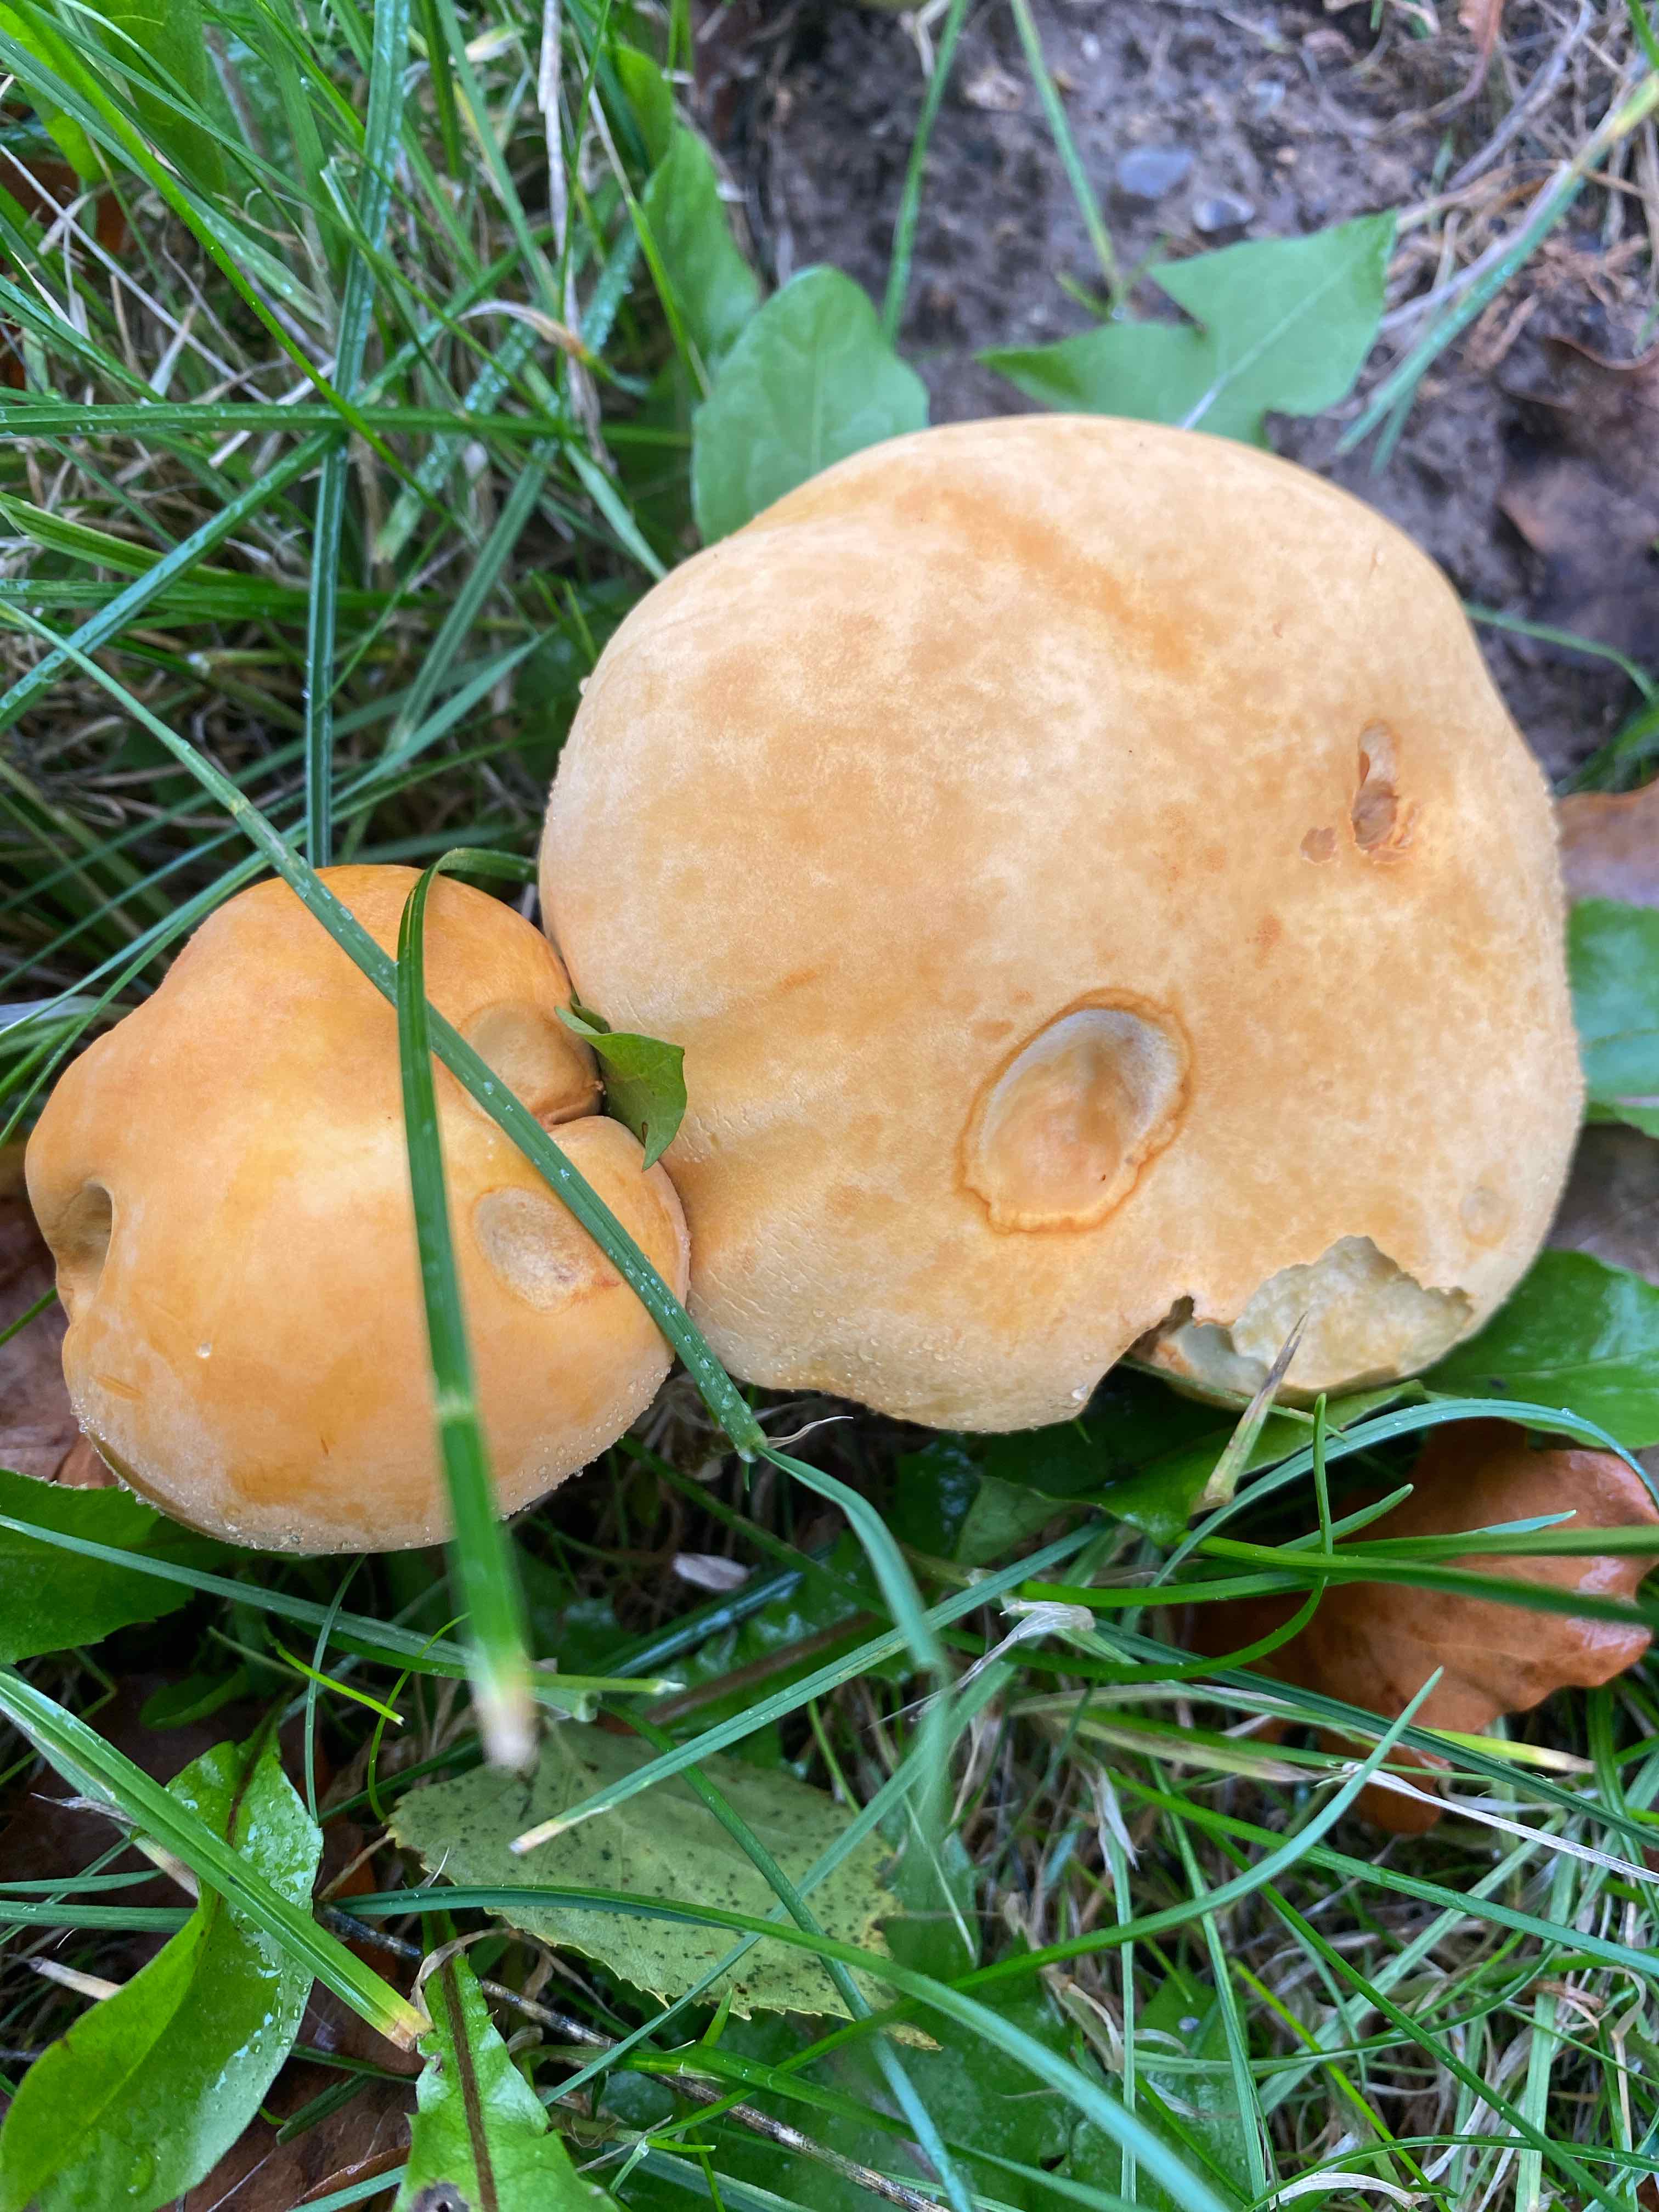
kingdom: Fungi
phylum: Basidiomycota
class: Agaricomycetes
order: Agaricales
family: Tricholomataceae
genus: Phaeolepiota
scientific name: Phaeolepiota aurea
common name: gyldenhat
